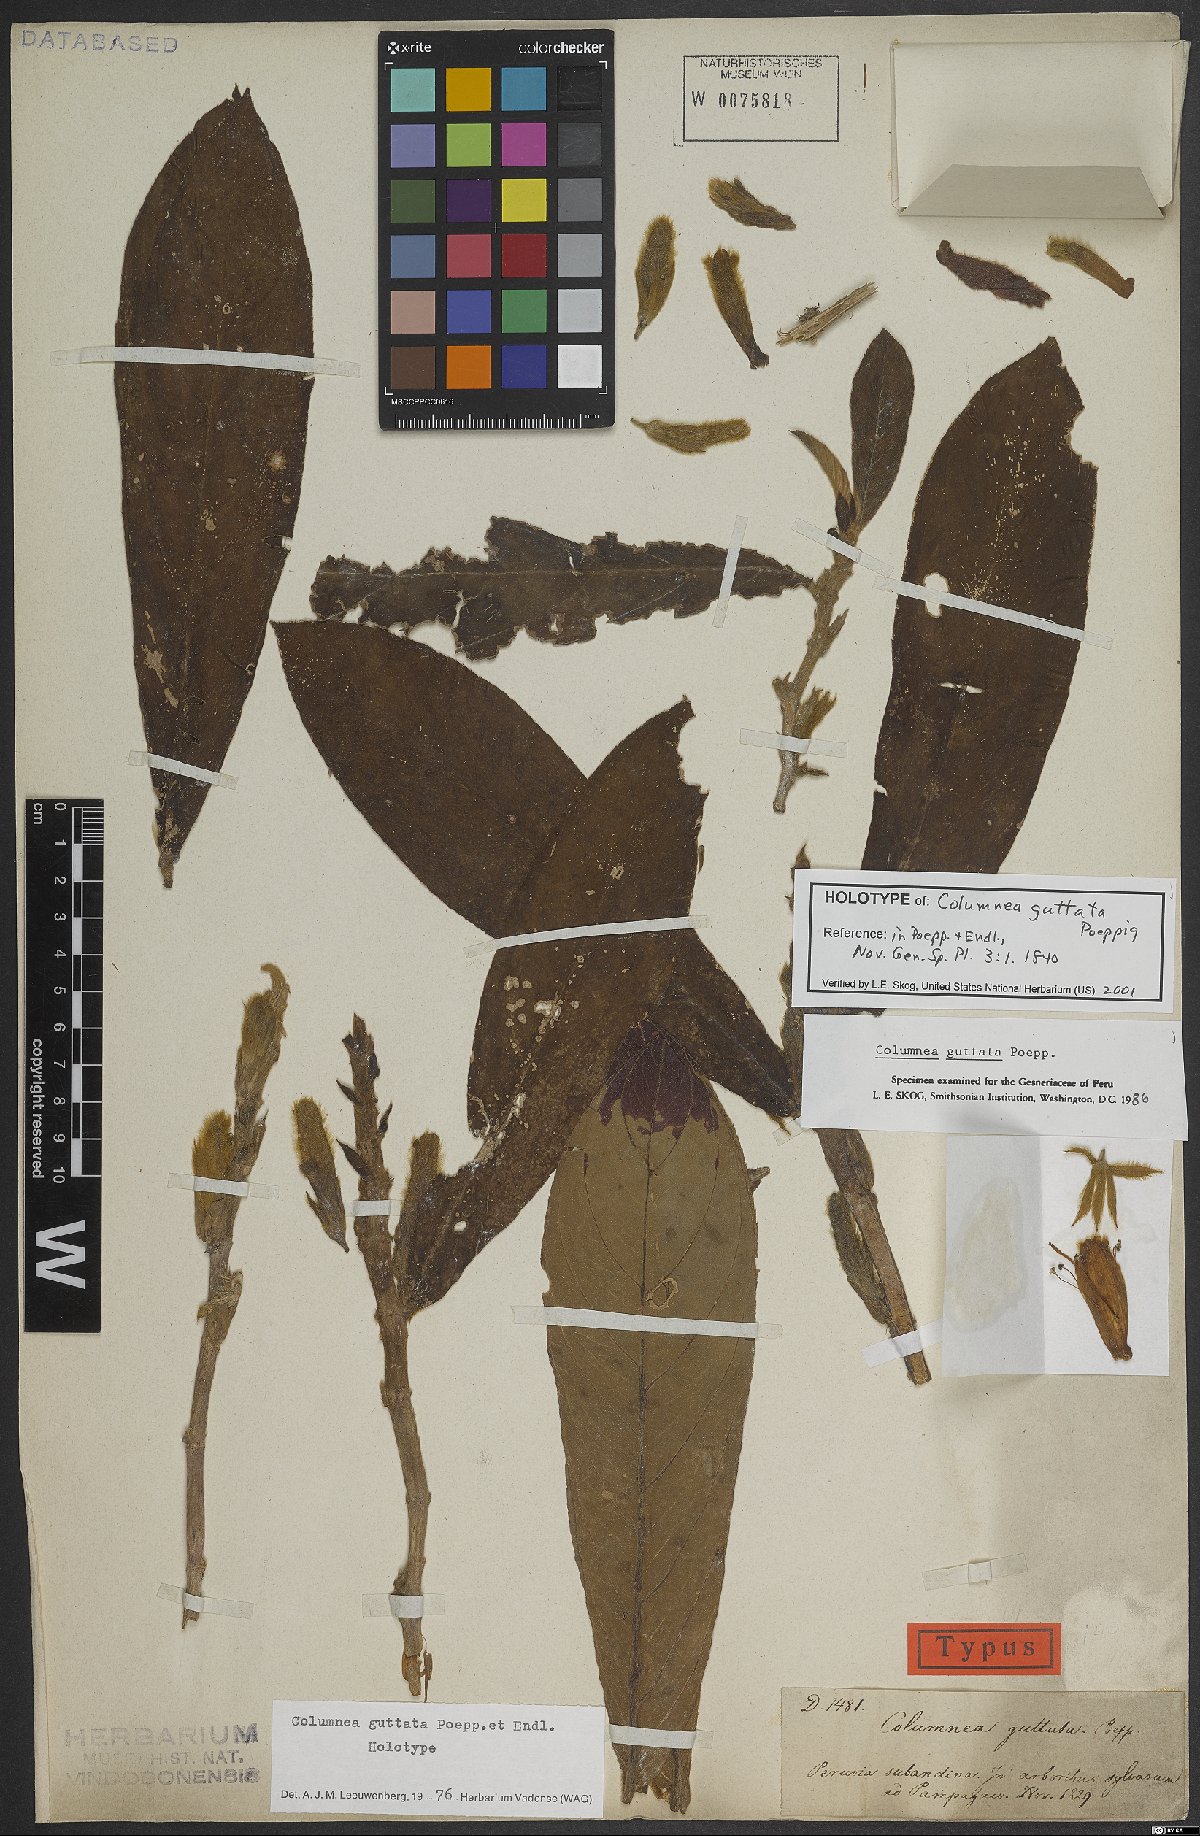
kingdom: Plantae
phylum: Tracheophyta
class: Magnoliopsida
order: Lamiales
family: Gesneriaceae
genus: Columnea
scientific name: Columnea guttata
